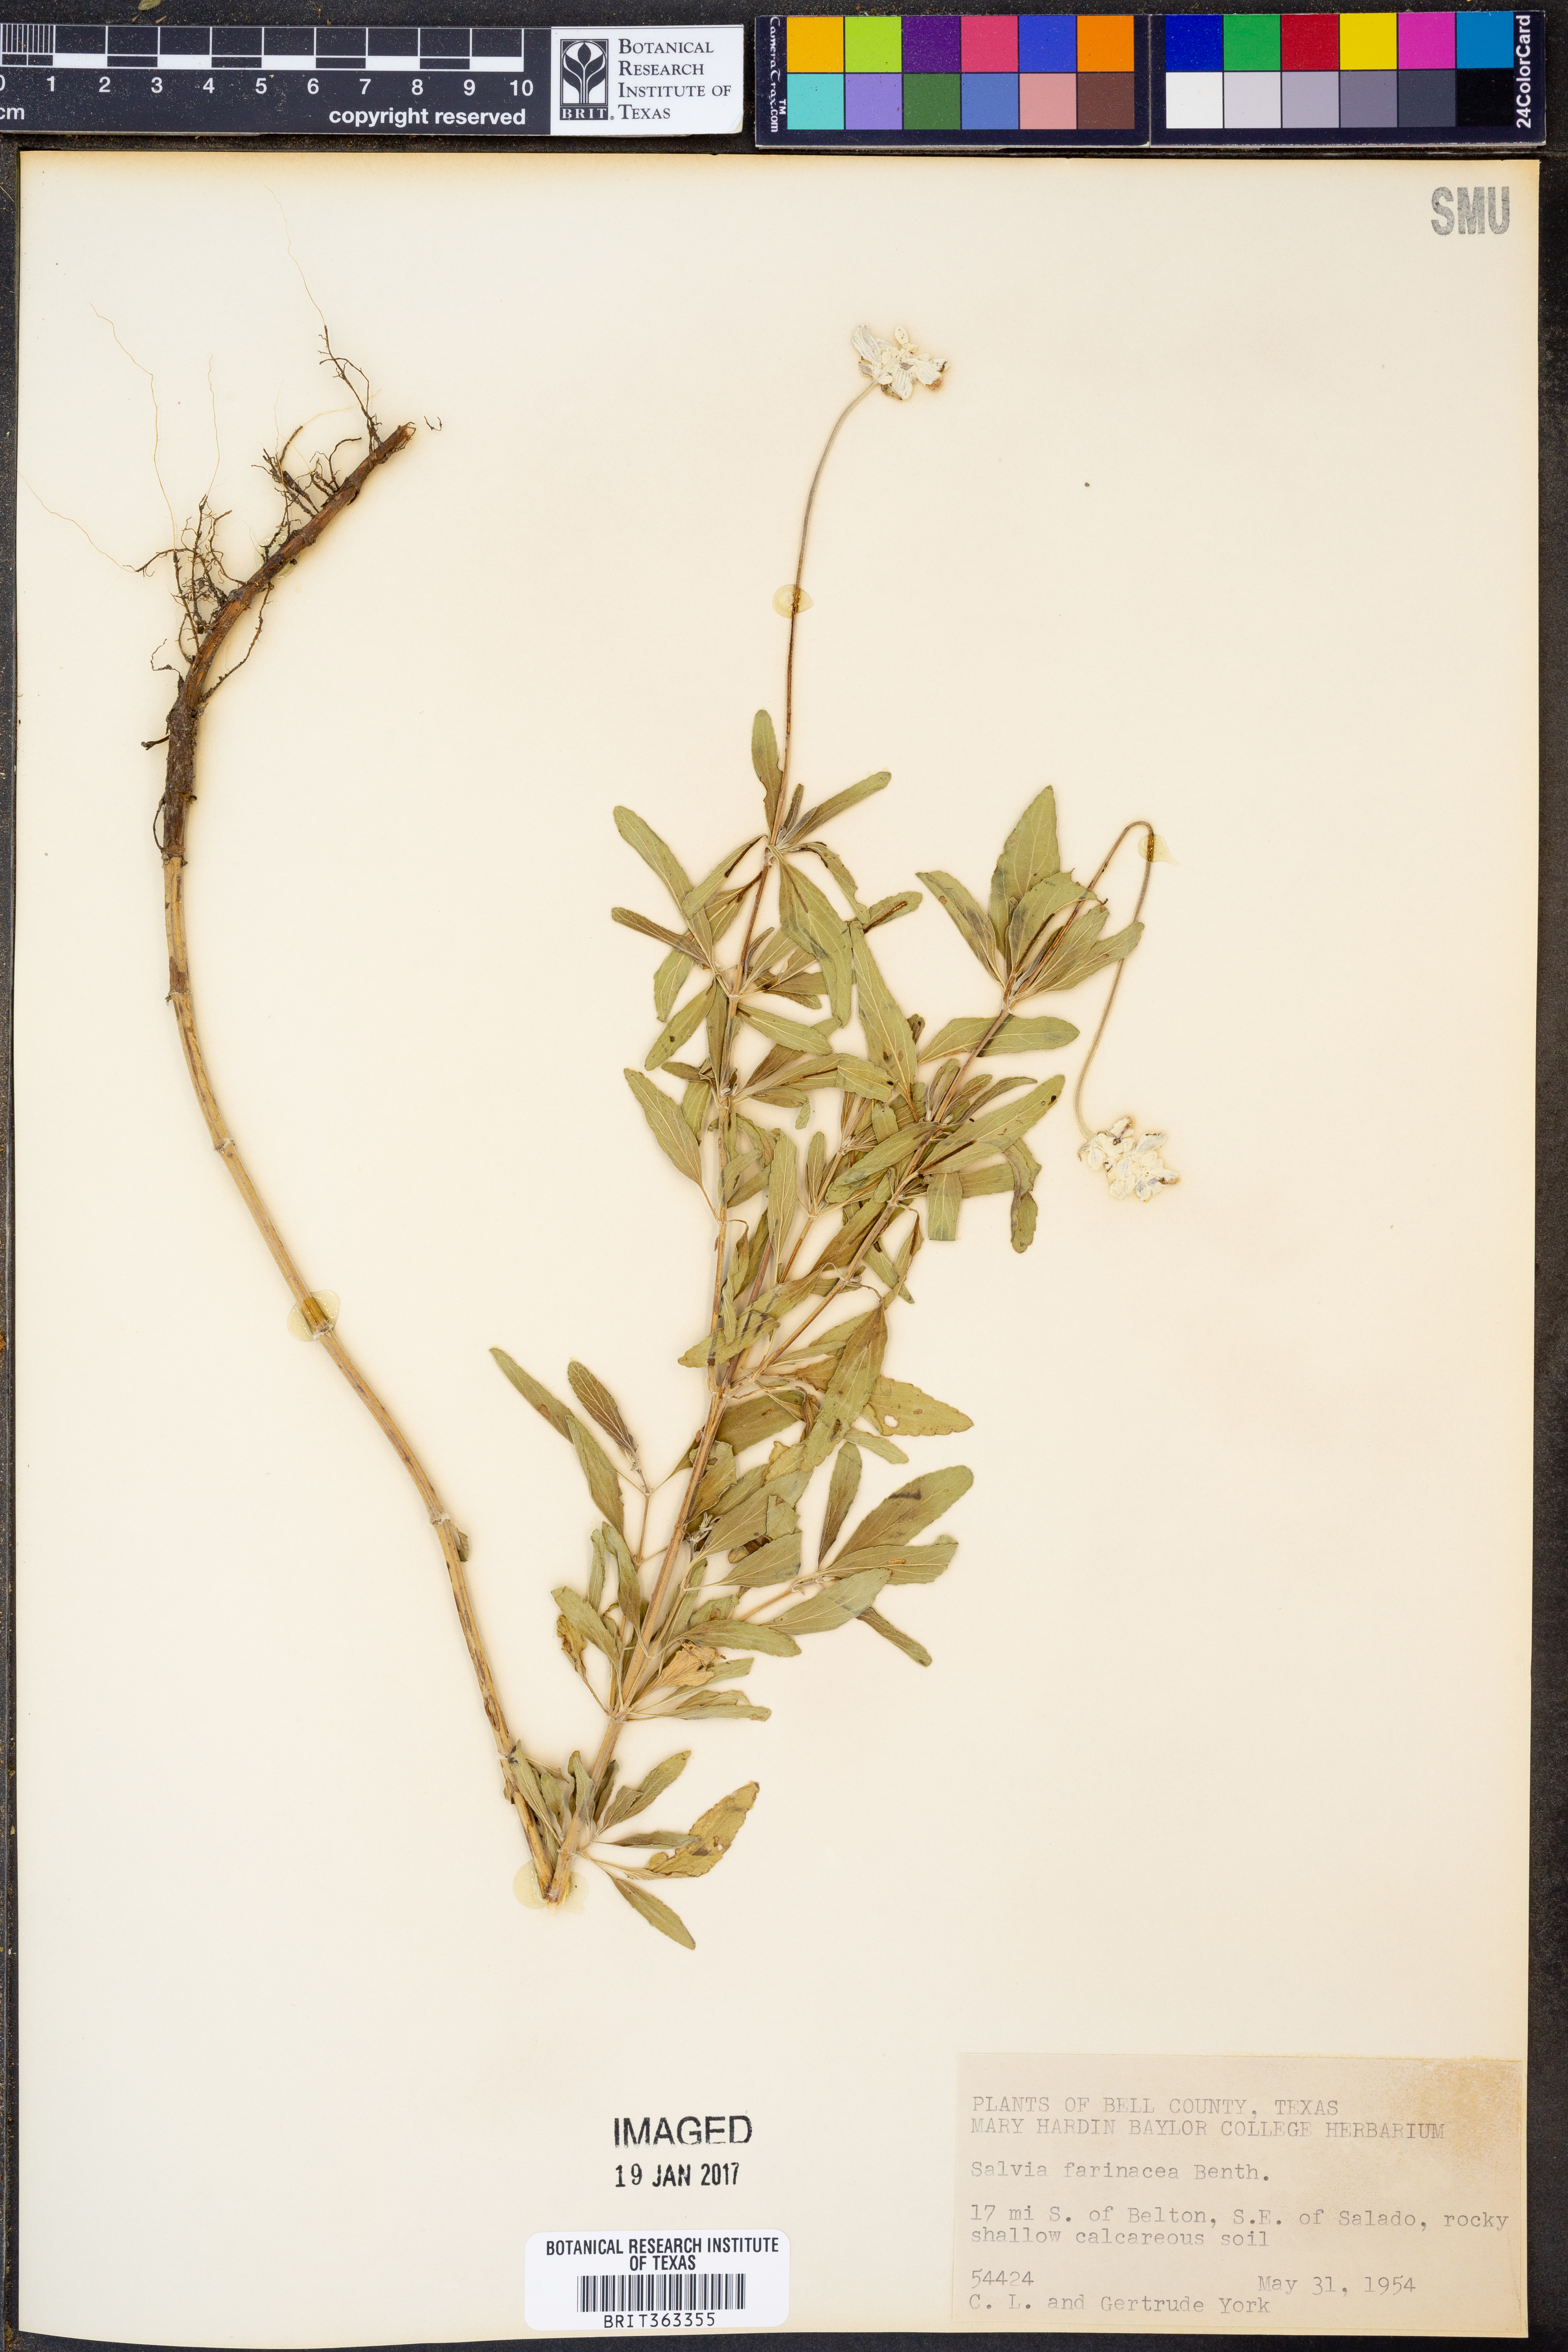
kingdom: Plantae
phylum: Tracheophyta
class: Magnoliopsida
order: Lamiales
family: Lamiaceae
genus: Salvia
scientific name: Salvia farinacea
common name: Mealy sage
